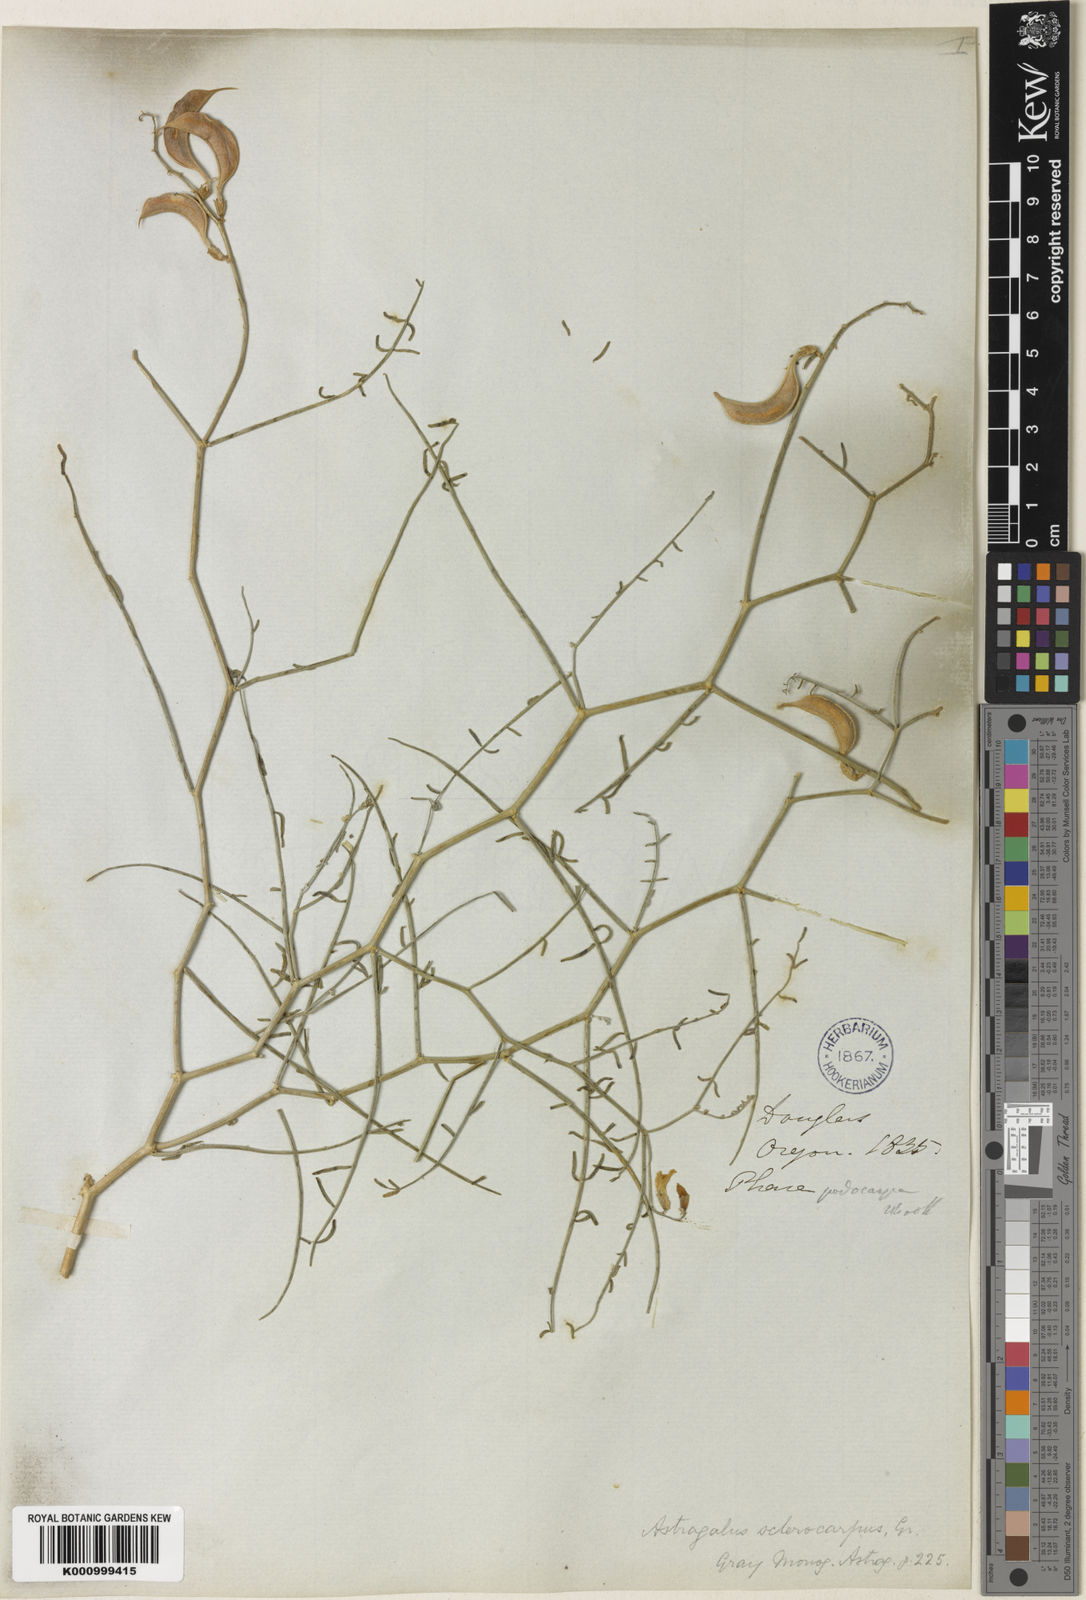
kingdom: Plantae
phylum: Tracheophyta
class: Magnoliopsida
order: Fabales
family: Fabaceae
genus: Astragalus
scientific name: Astragalus sclerocarpus
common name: The dalles milk-vetch
